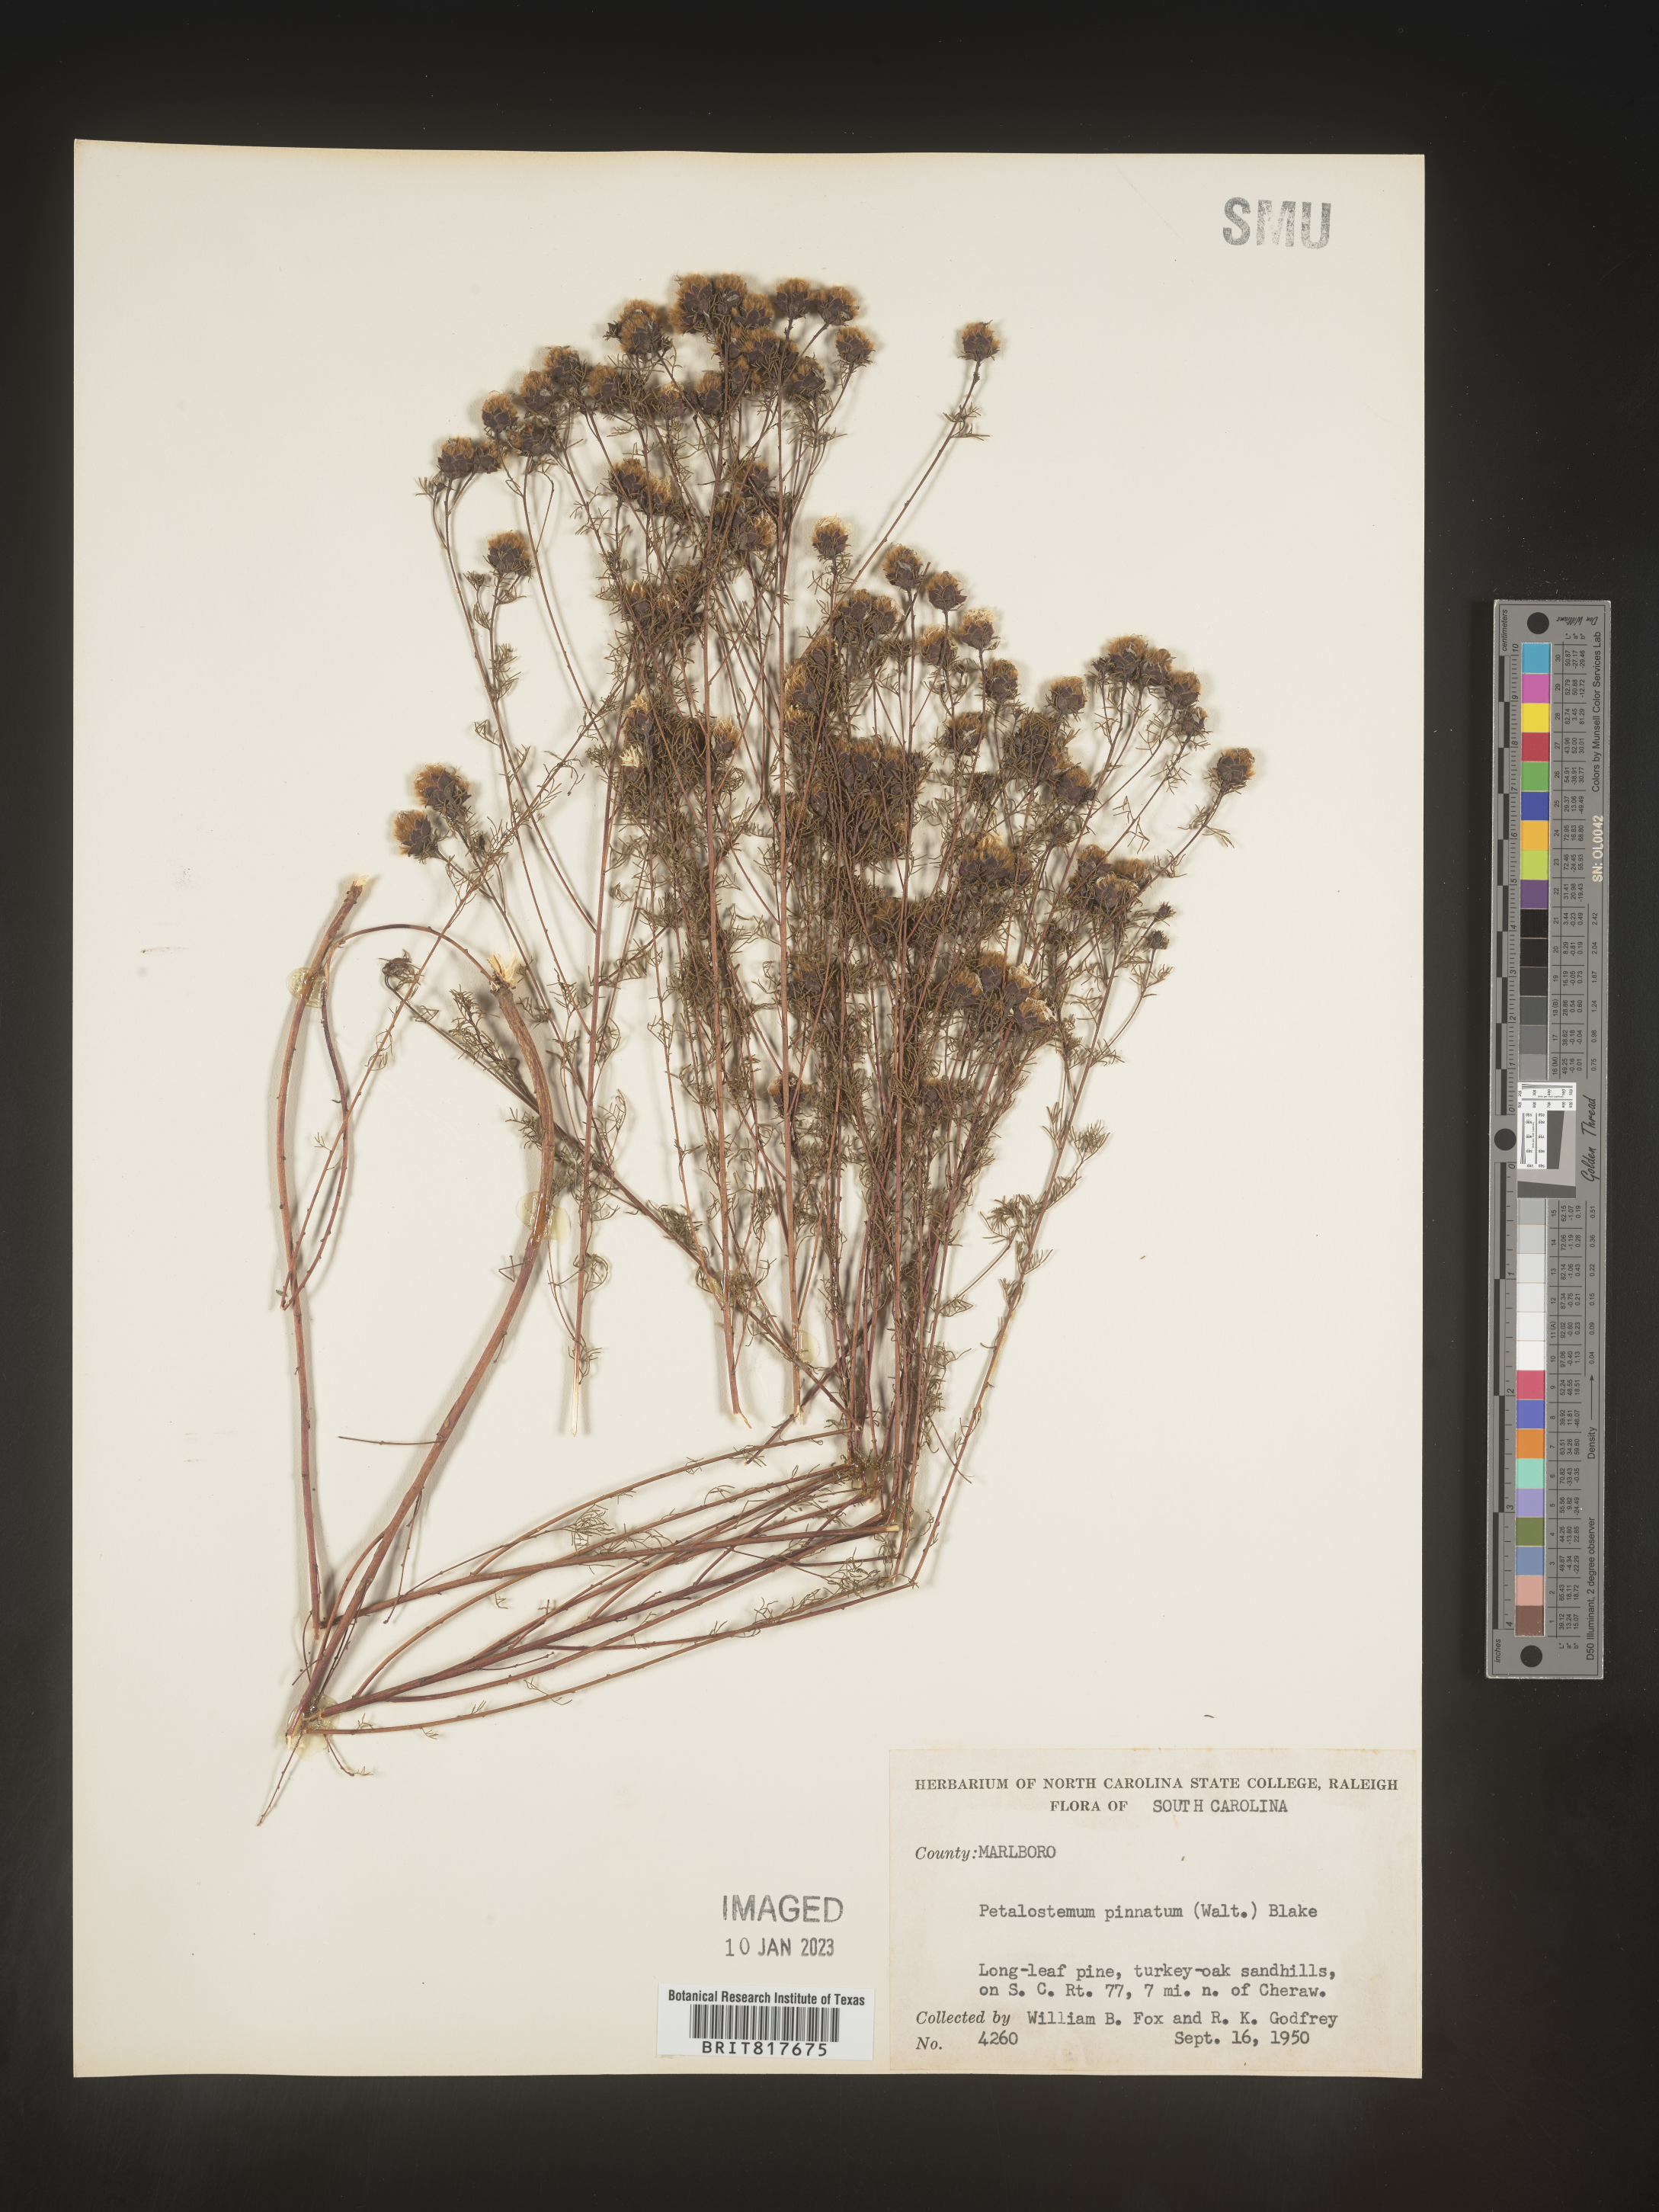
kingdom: Plantae
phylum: Tracheophyta
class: Magnoliopsida
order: Fabales
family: Fabaceae
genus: Dalea
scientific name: Dalea pinnata
